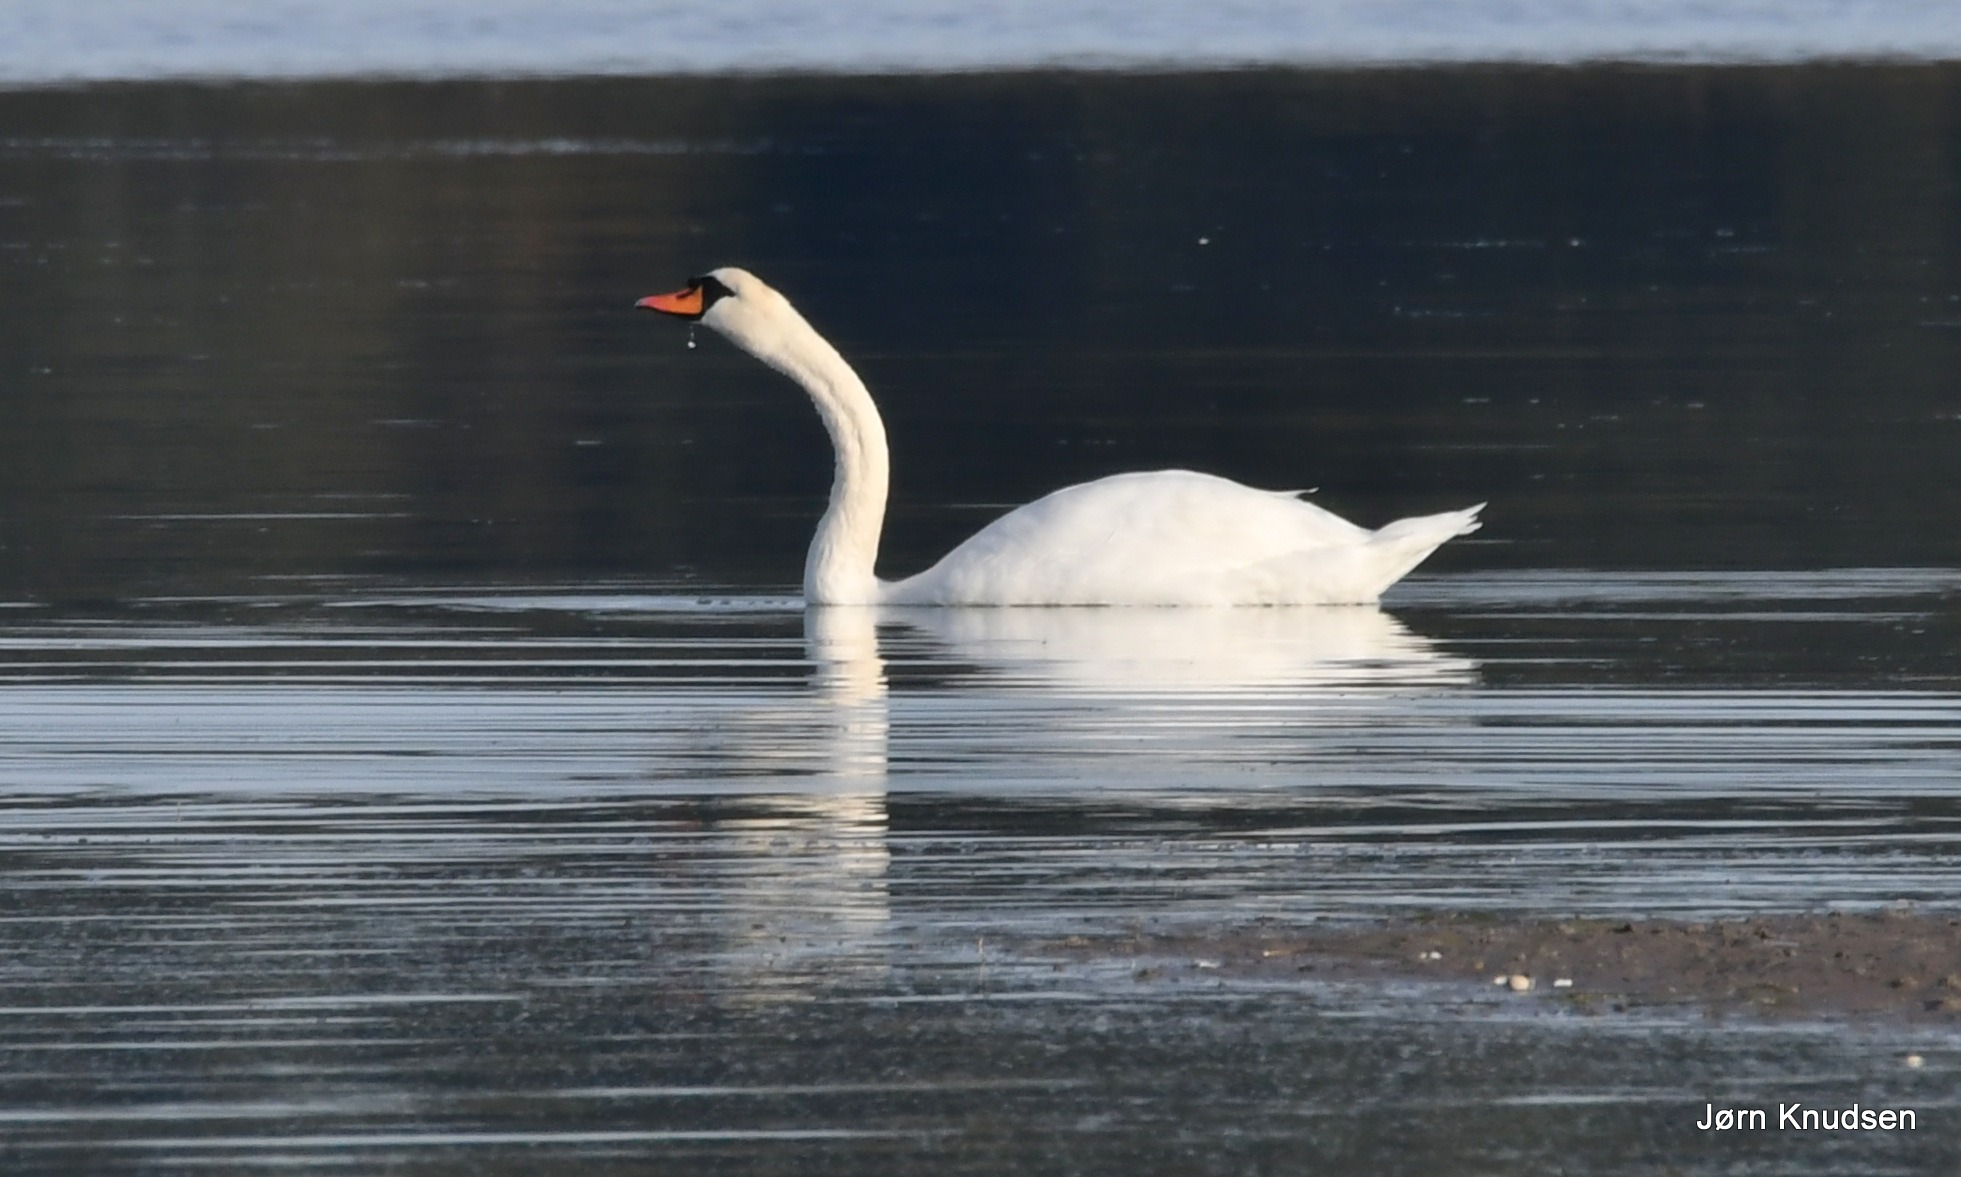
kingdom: Animalia
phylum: Chordata
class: Aves
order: Anseriformes
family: Anatidae
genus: Cygnus
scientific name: Cygnus olor
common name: Knopsvane
